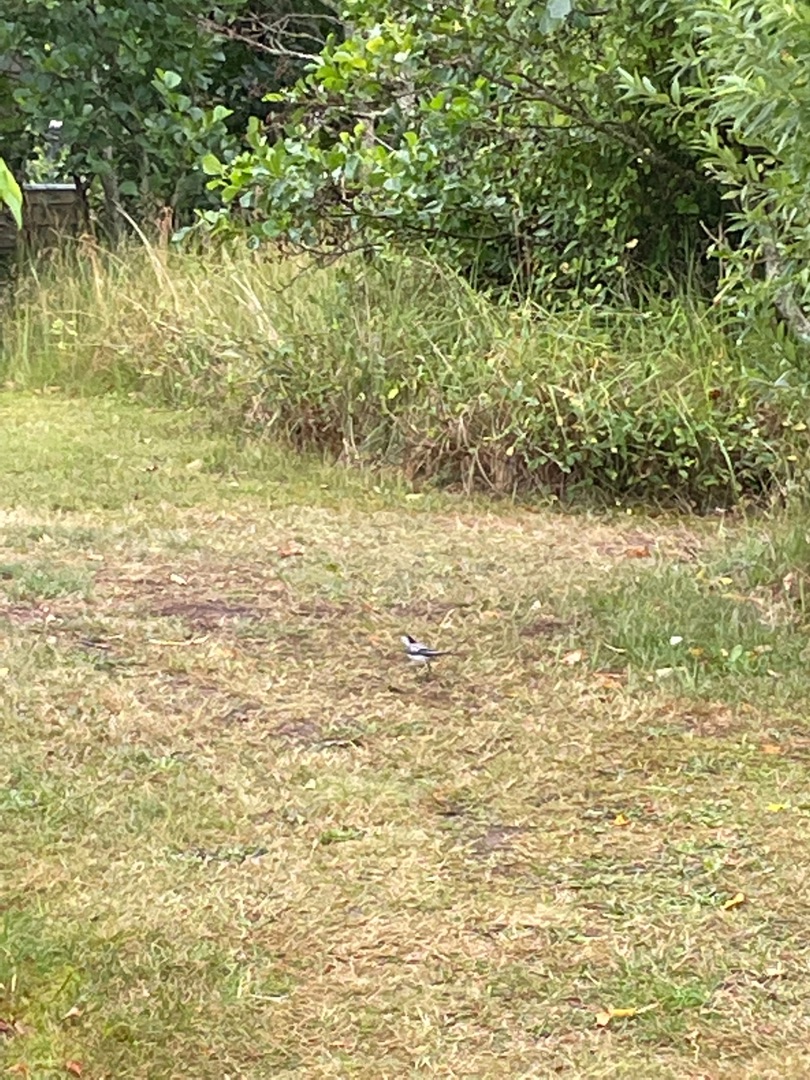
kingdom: Animalia
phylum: Chordata
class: Aves
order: Passeriformes
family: Motacillidae
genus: Motacilla
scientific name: Motacilla alba
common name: Hvid vipstjert
